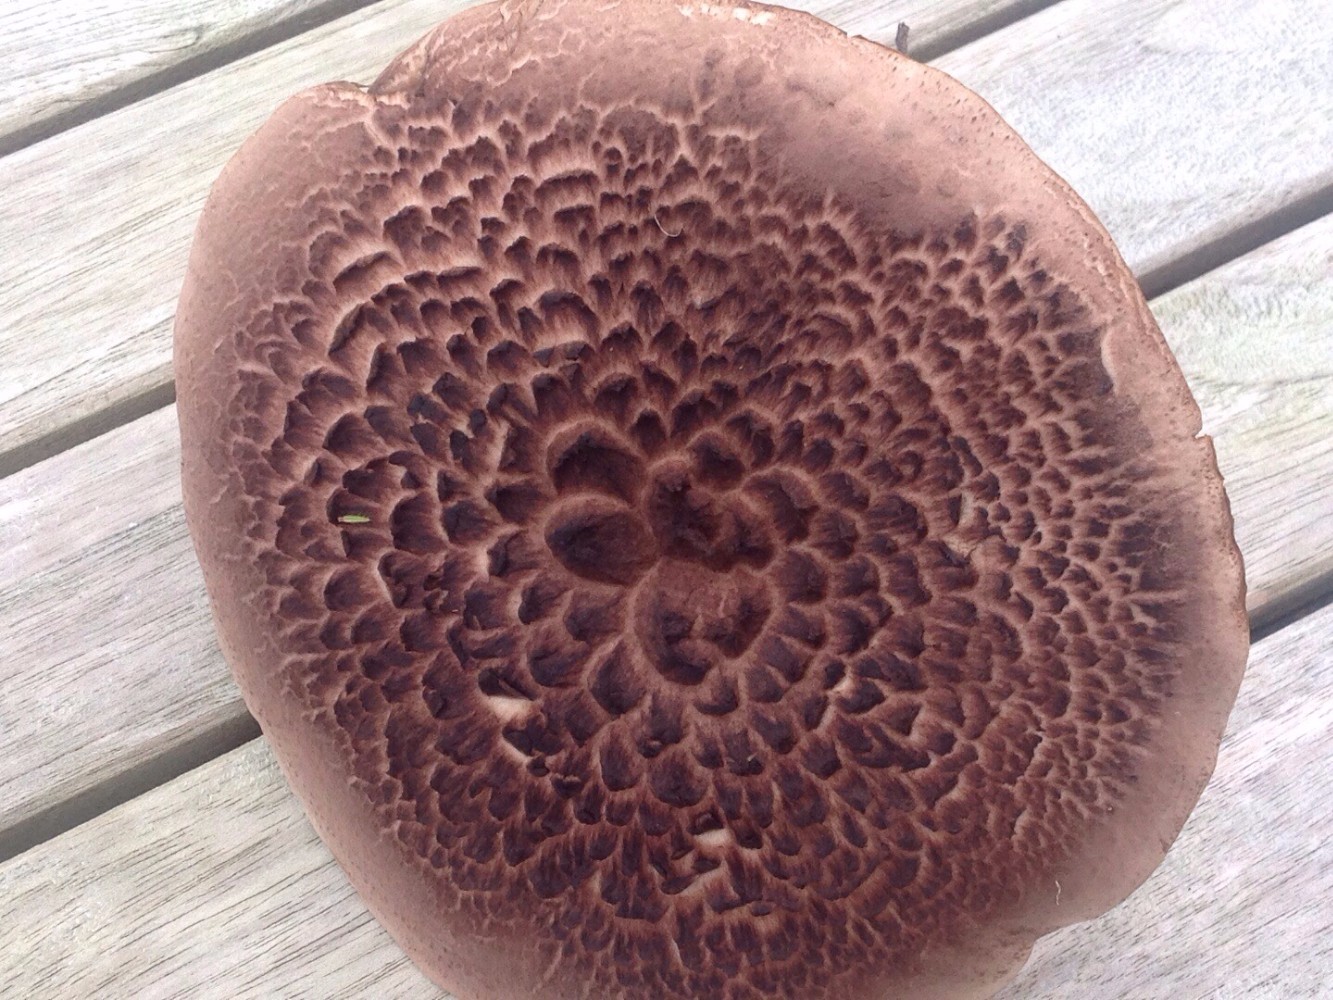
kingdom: Fungi
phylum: Basidiomycota
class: Agaricomycetes
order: Thelephorales
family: Bankeraceae
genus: Sarcodon
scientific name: Sarcodon imbricatus
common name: skællet kødpigsvamp
